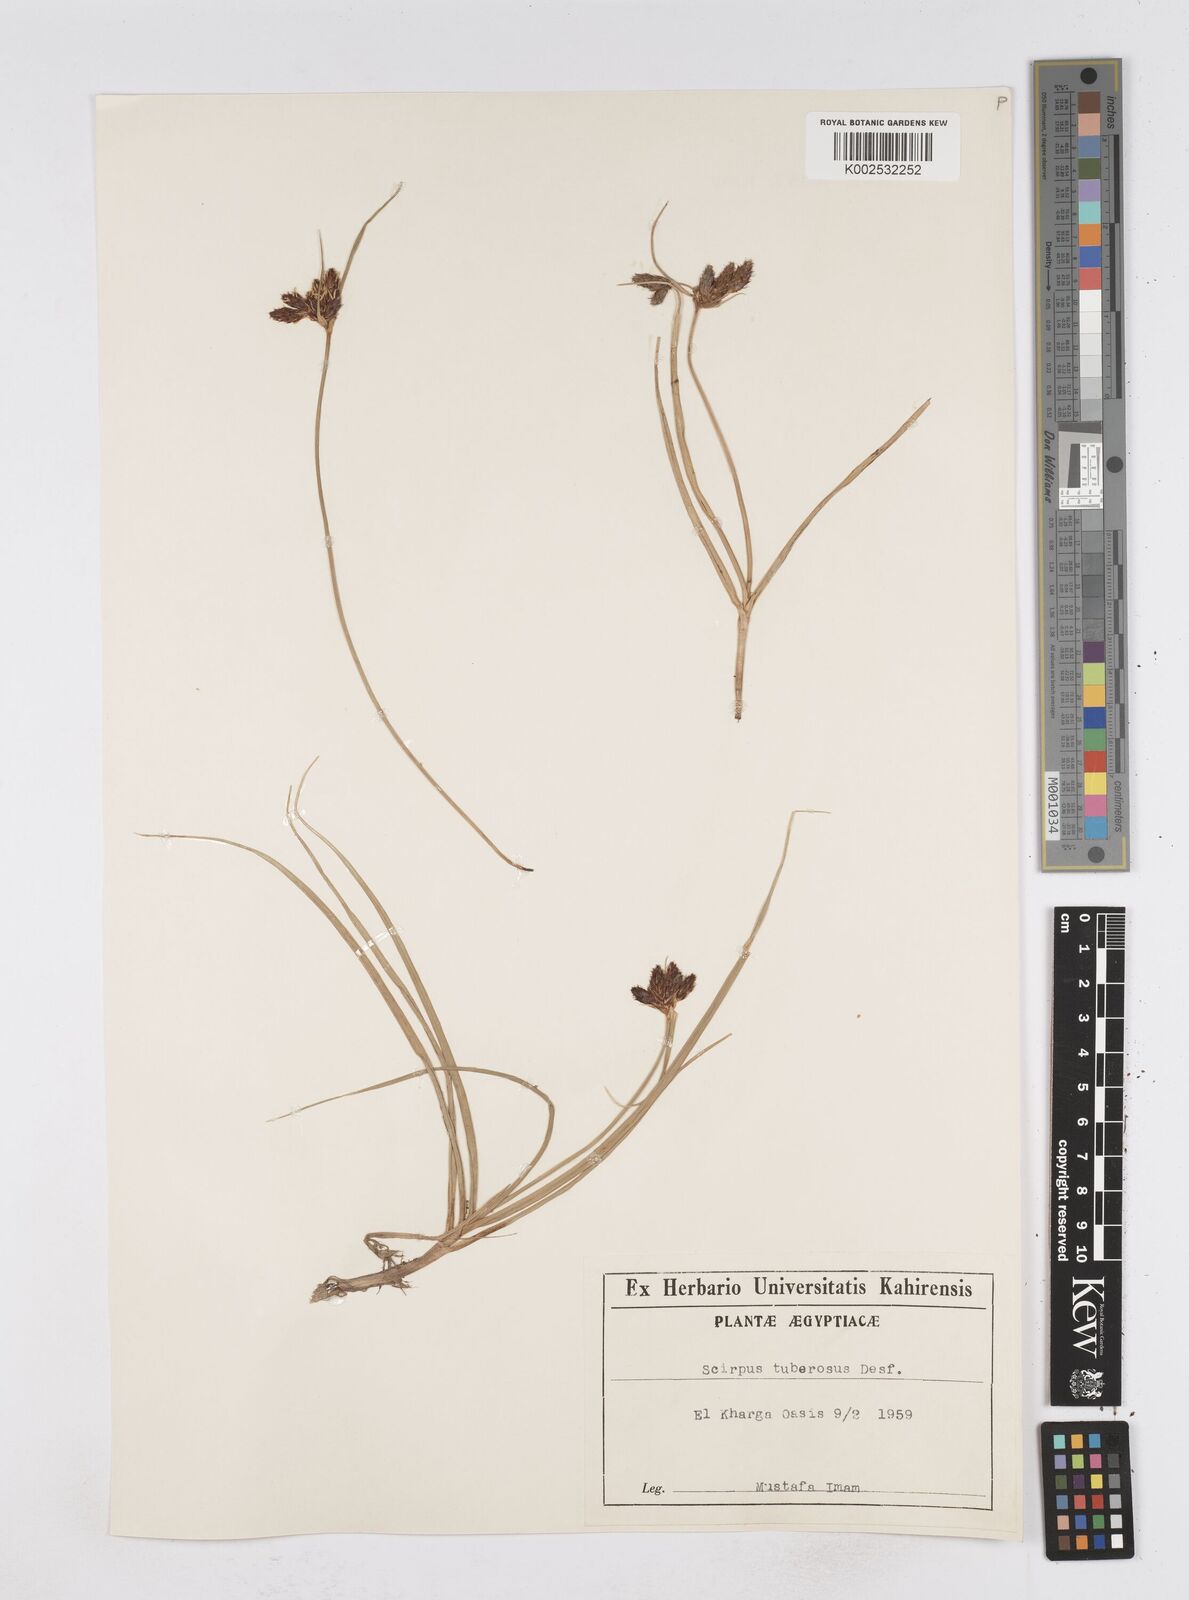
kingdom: Plantae
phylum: Tracheophyta
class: Liliopsida
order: Poales
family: Cyperaceae
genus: Bolboschoenus
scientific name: Bolboschoenus maritimus
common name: Sea club-rush
